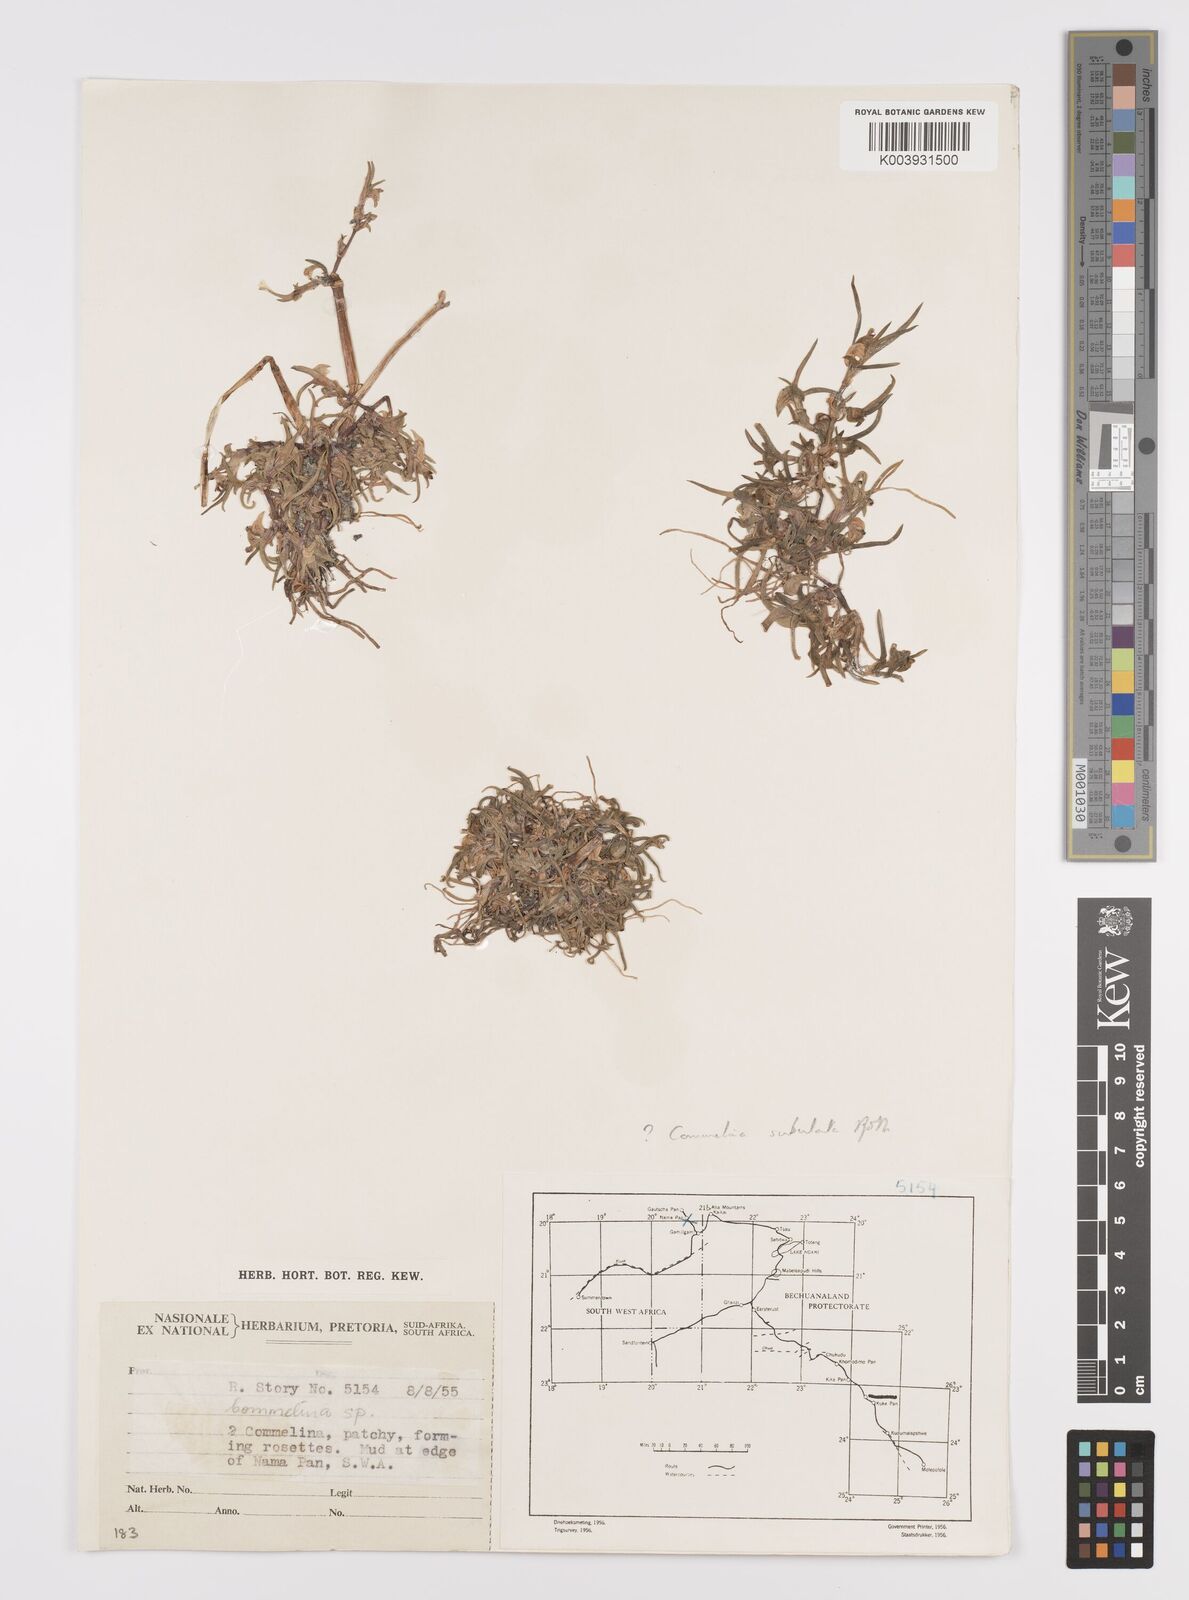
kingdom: Plantae
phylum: Tracheophyta
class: Liliopsida
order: Commelinales
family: Commelinaceae
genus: Commelina
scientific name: Commelina subulata
